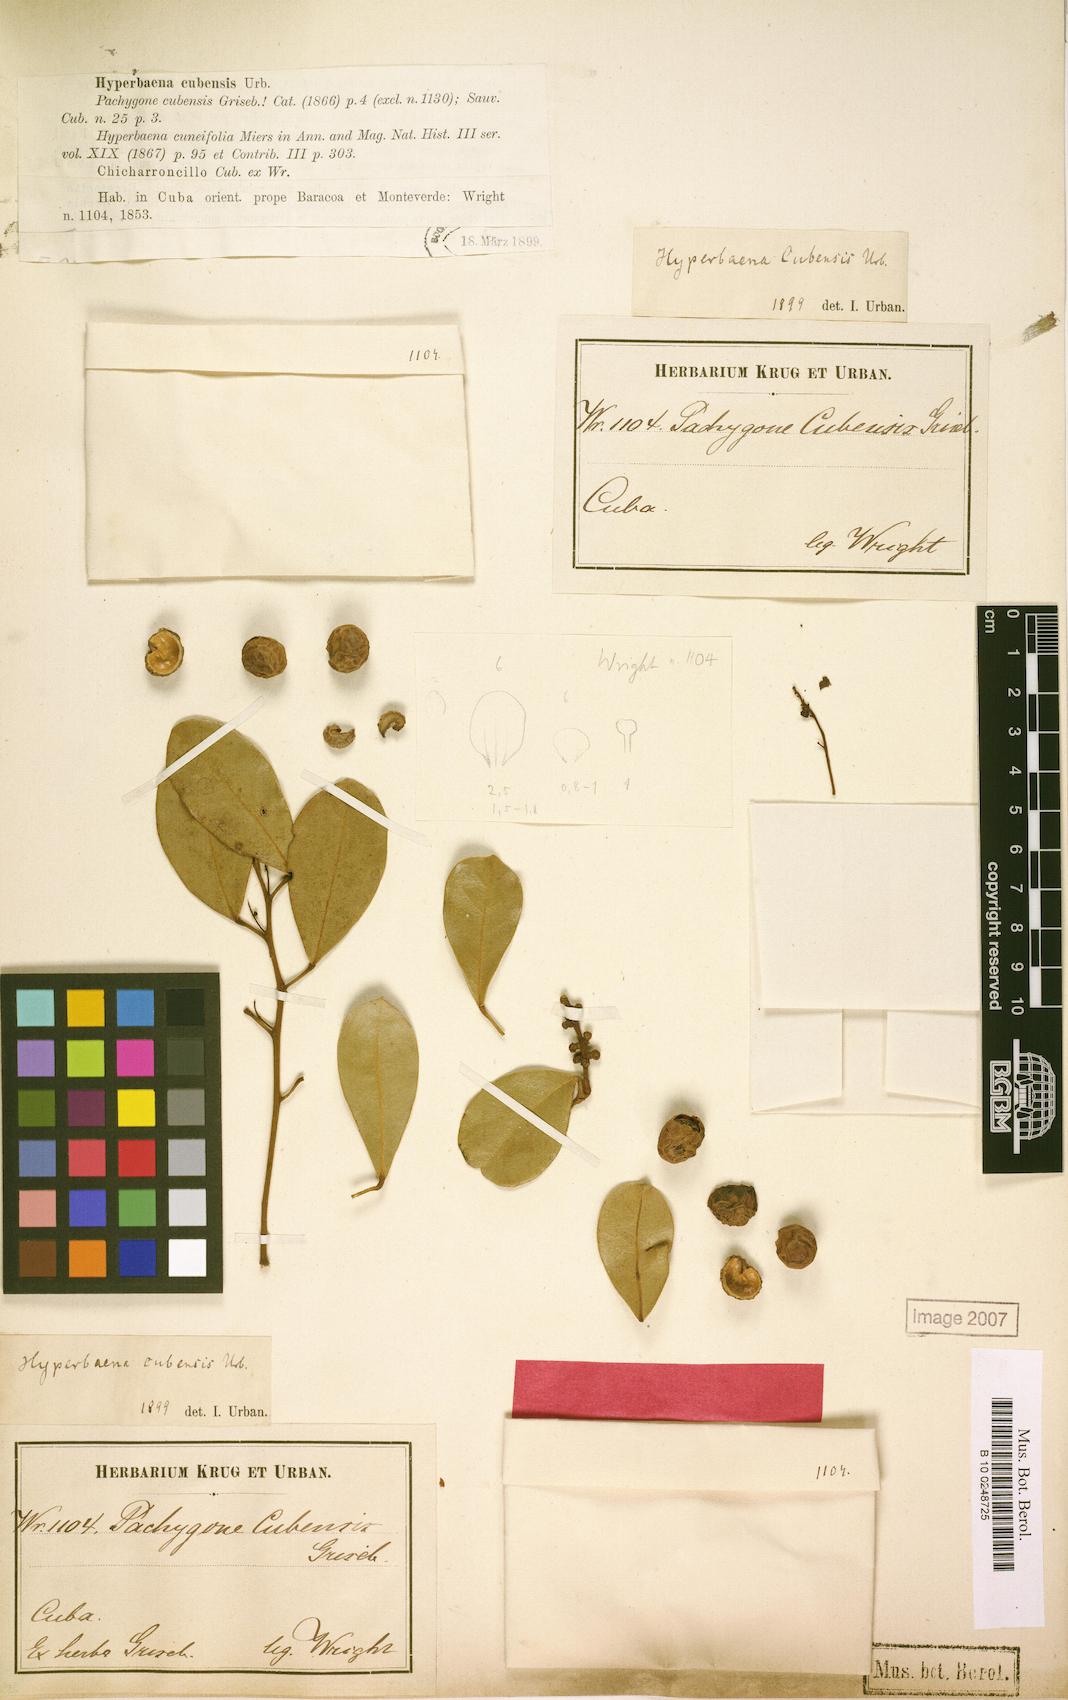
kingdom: Plantae
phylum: Tracheophyta
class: Magnoliopsida
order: Ranunculales
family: Menispermaceae
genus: Hyperbaena
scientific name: Hyperbaena cubensis
